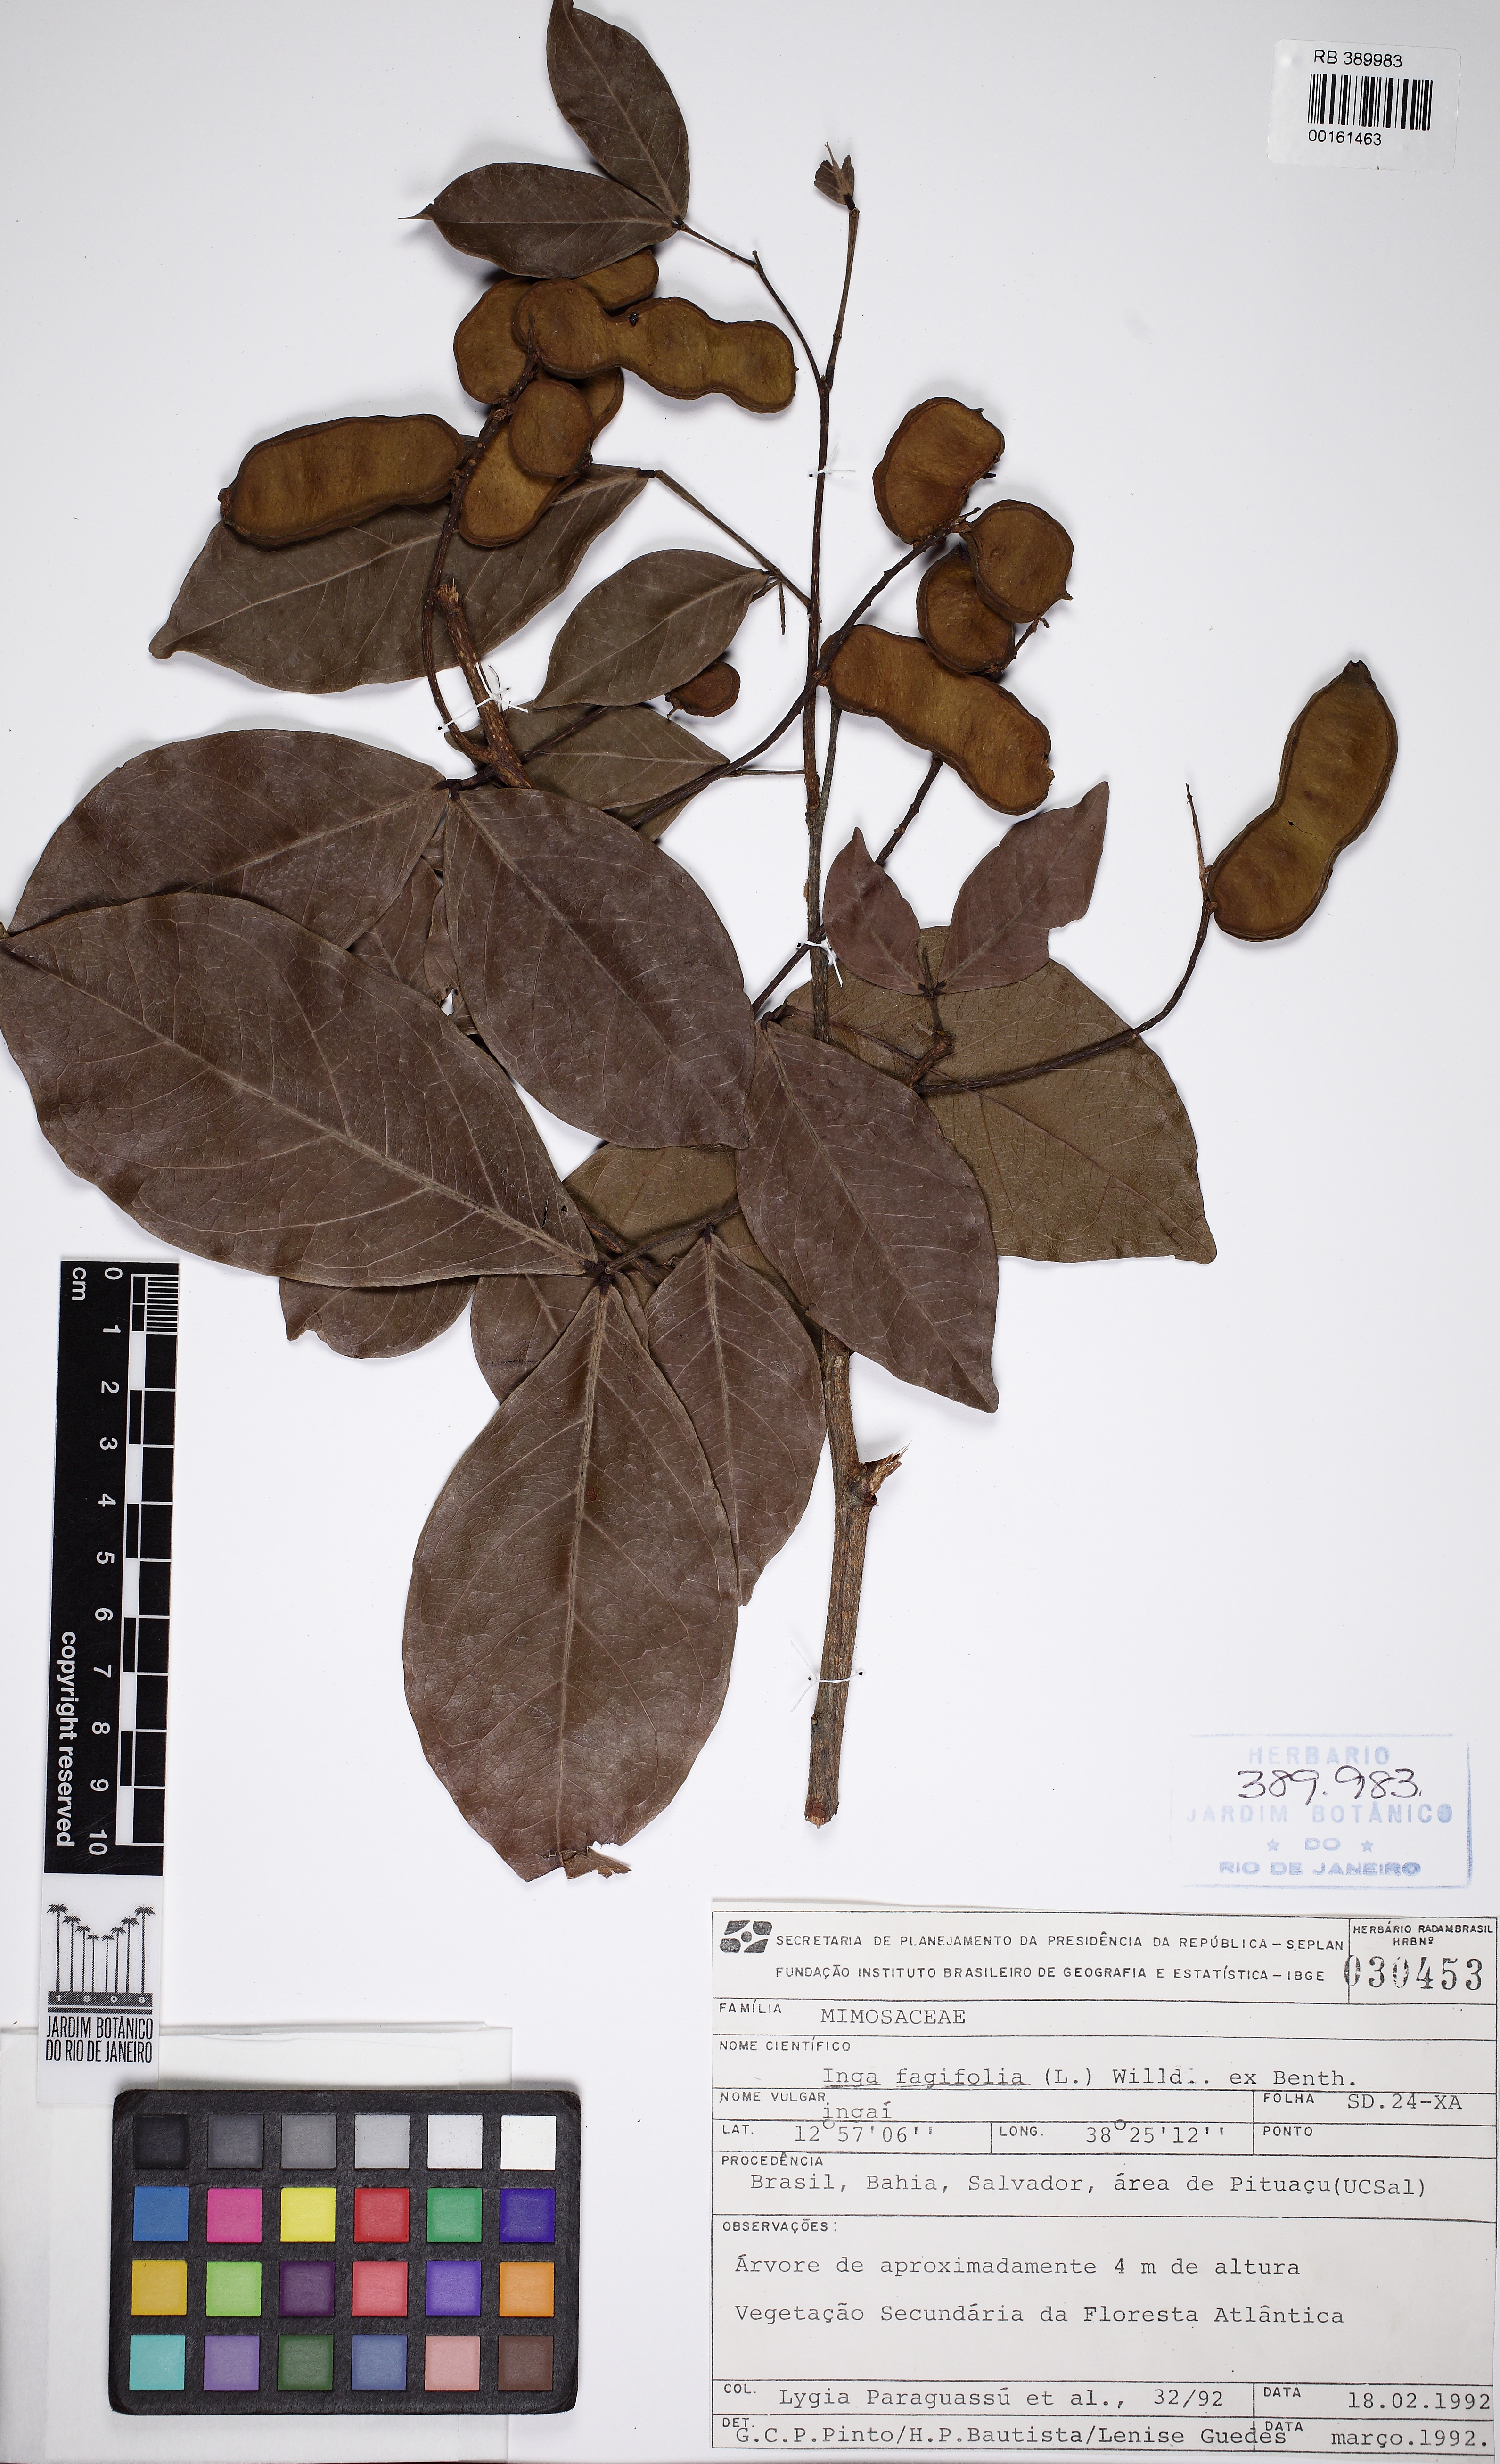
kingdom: Plantae
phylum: Tracheophyta
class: Magnoliopsida
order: Fabales
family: Fabaceae
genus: Inga
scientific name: Inga ruiziana
